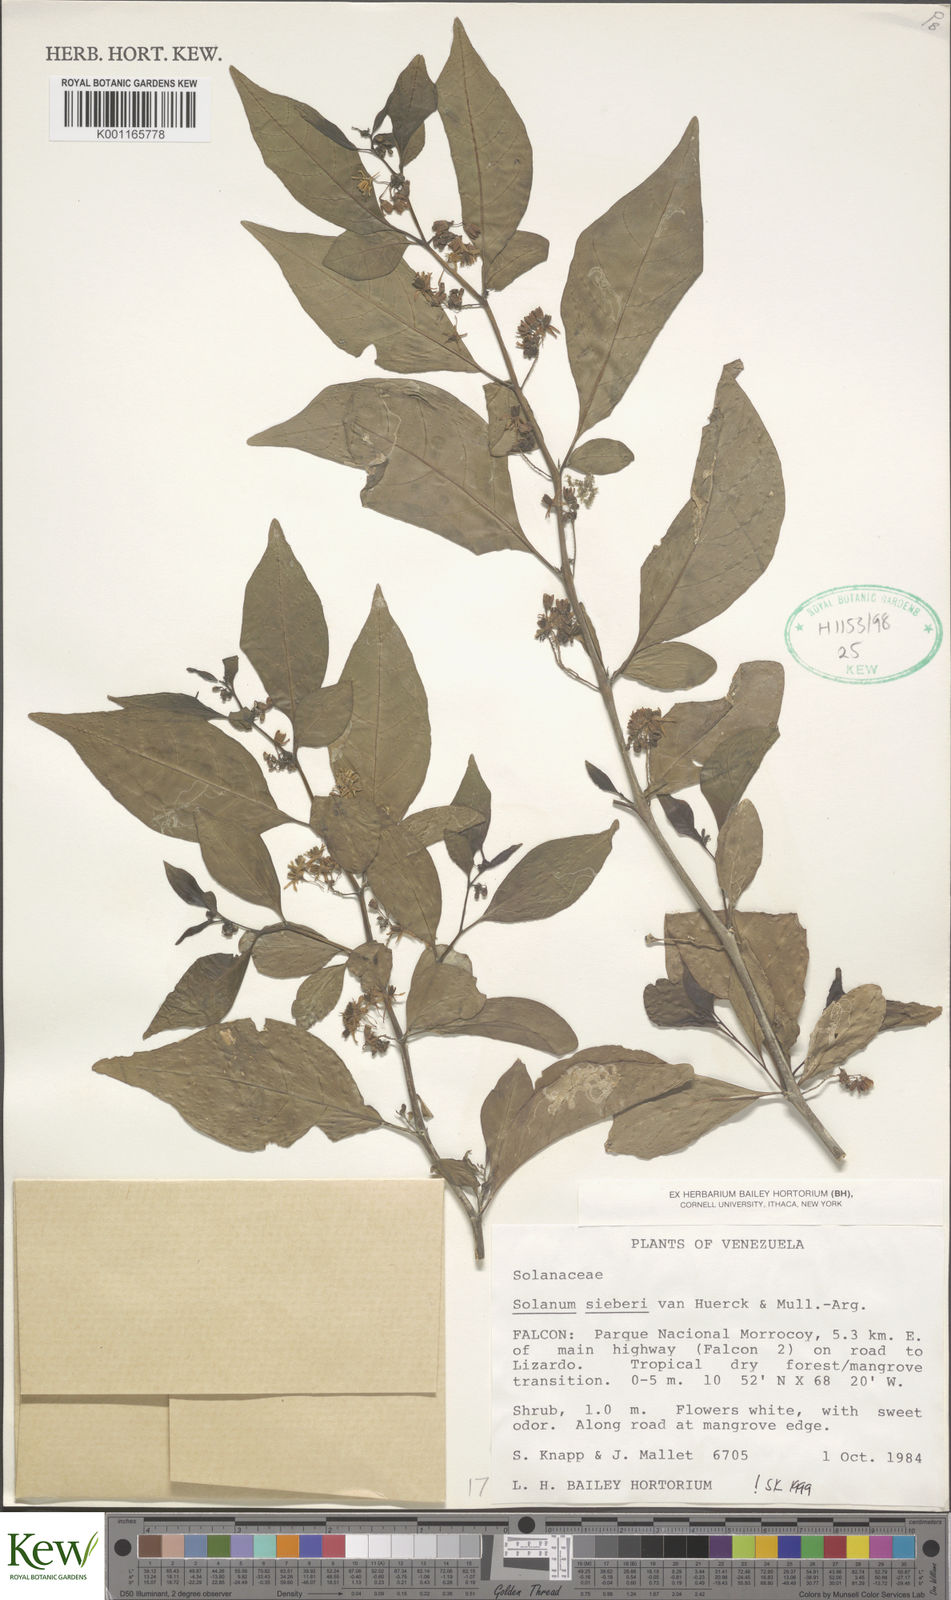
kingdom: Plantae
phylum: Tracheophyta
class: Magnoliopsida
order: Solanales
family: Solanaceae
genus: Solanum
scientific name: Solanum sieberi
